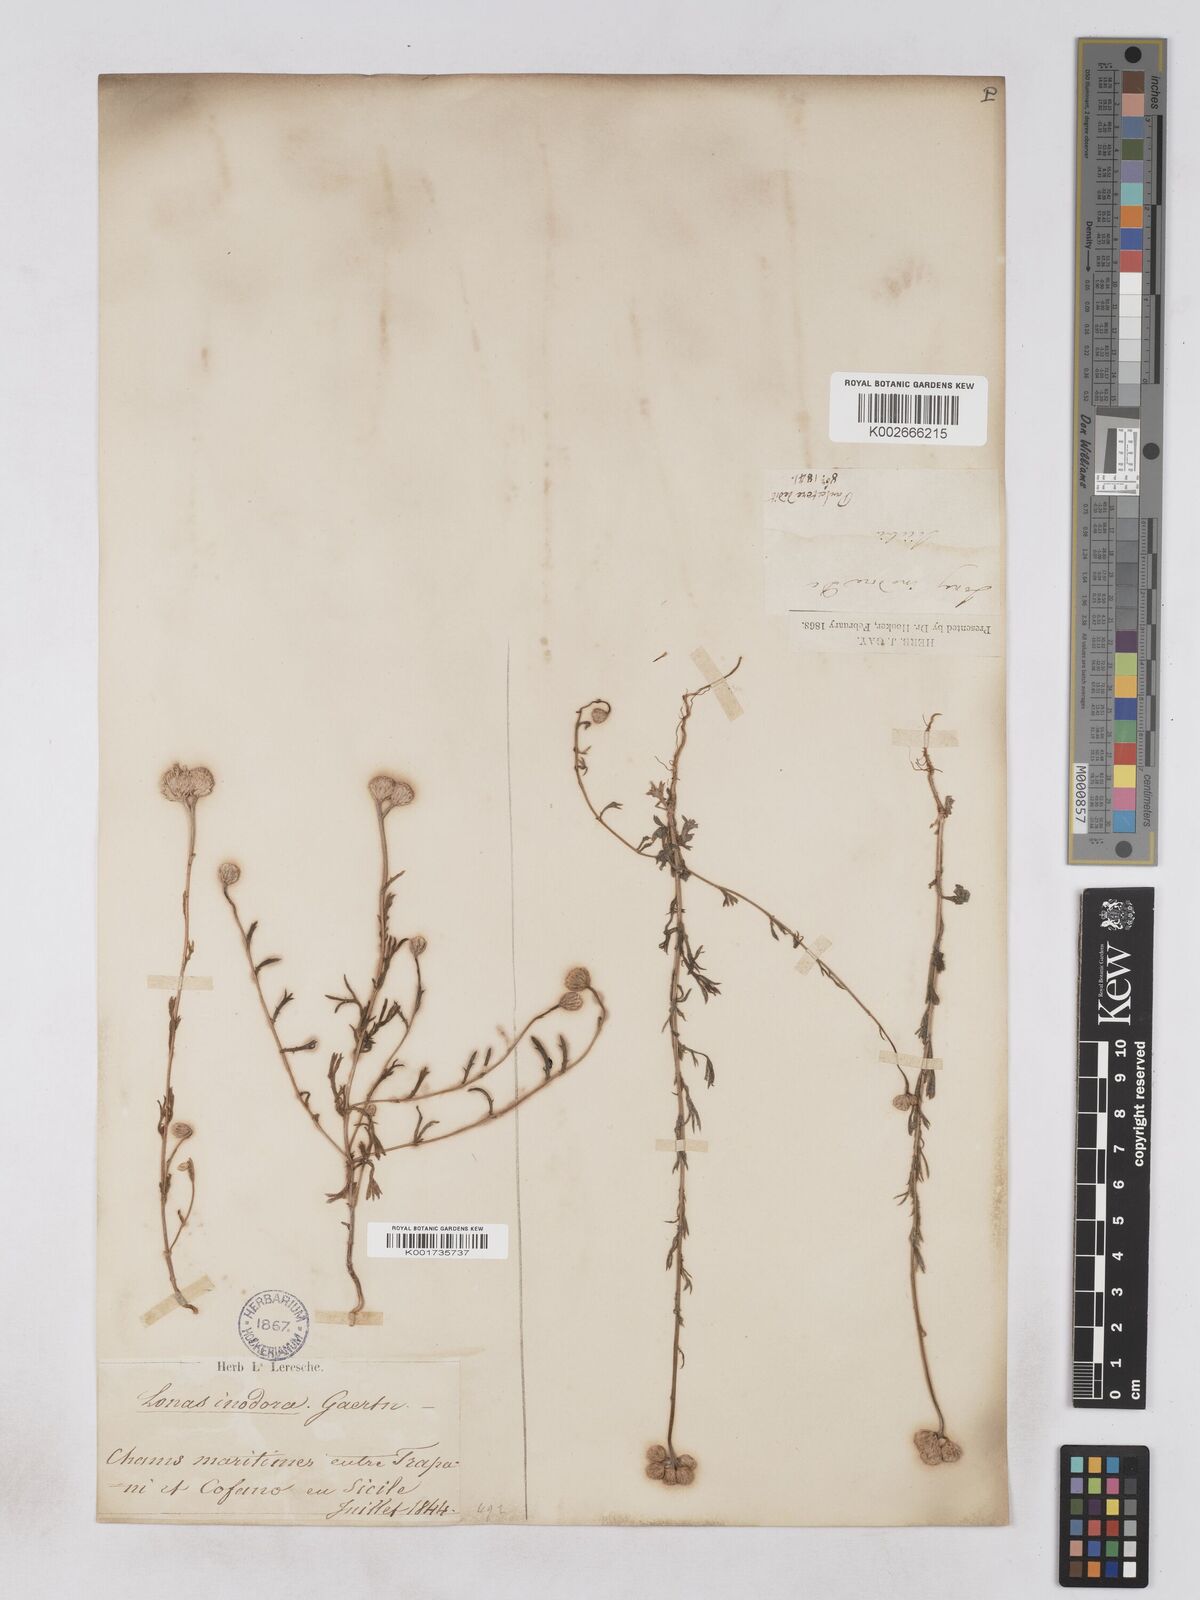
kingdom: Plantae
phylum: Tracheophyta
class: Magnoliopsida
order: Asterales
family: Asteraceae
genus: Lonas
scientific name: Lonas
